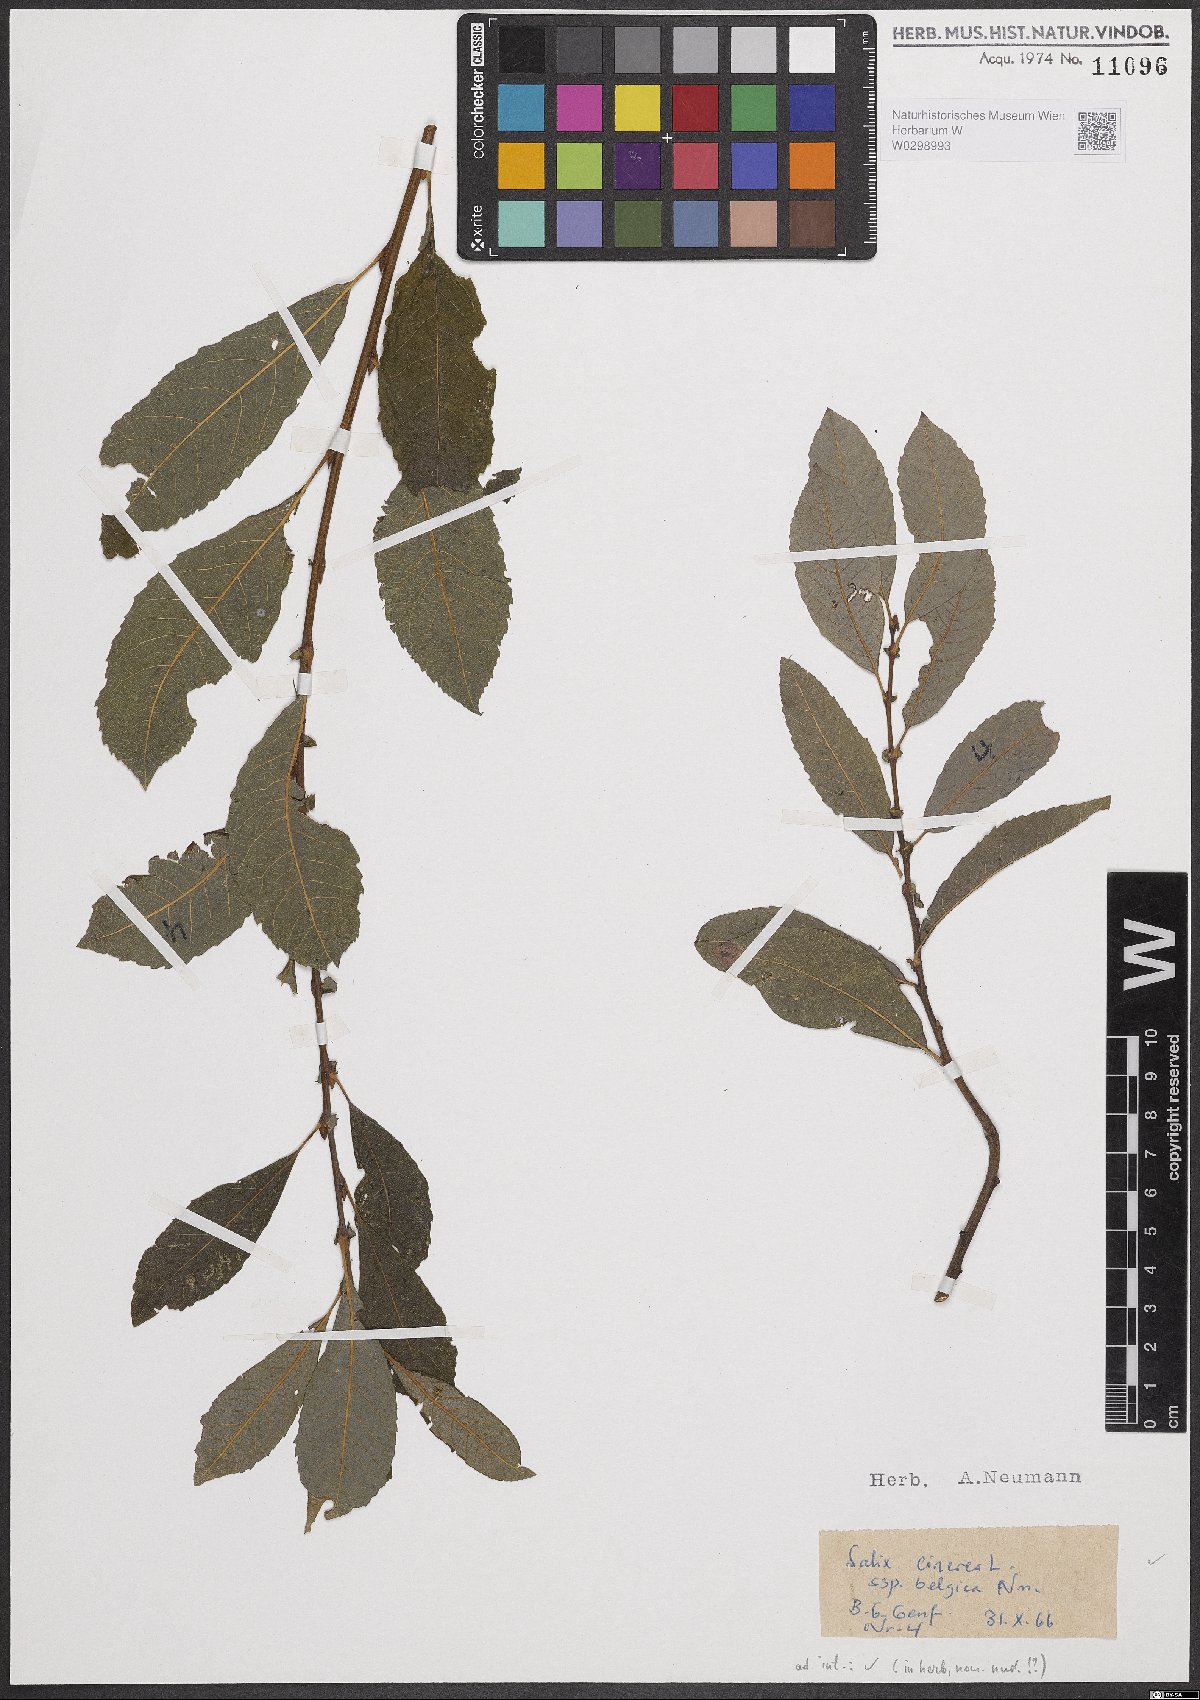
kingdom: Plantae
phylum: Tracheophyta
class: Magnoliopsida
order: Malpighiales
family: Salicaceae
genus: Salix
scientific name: Salix cinerea
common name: Common sallow
